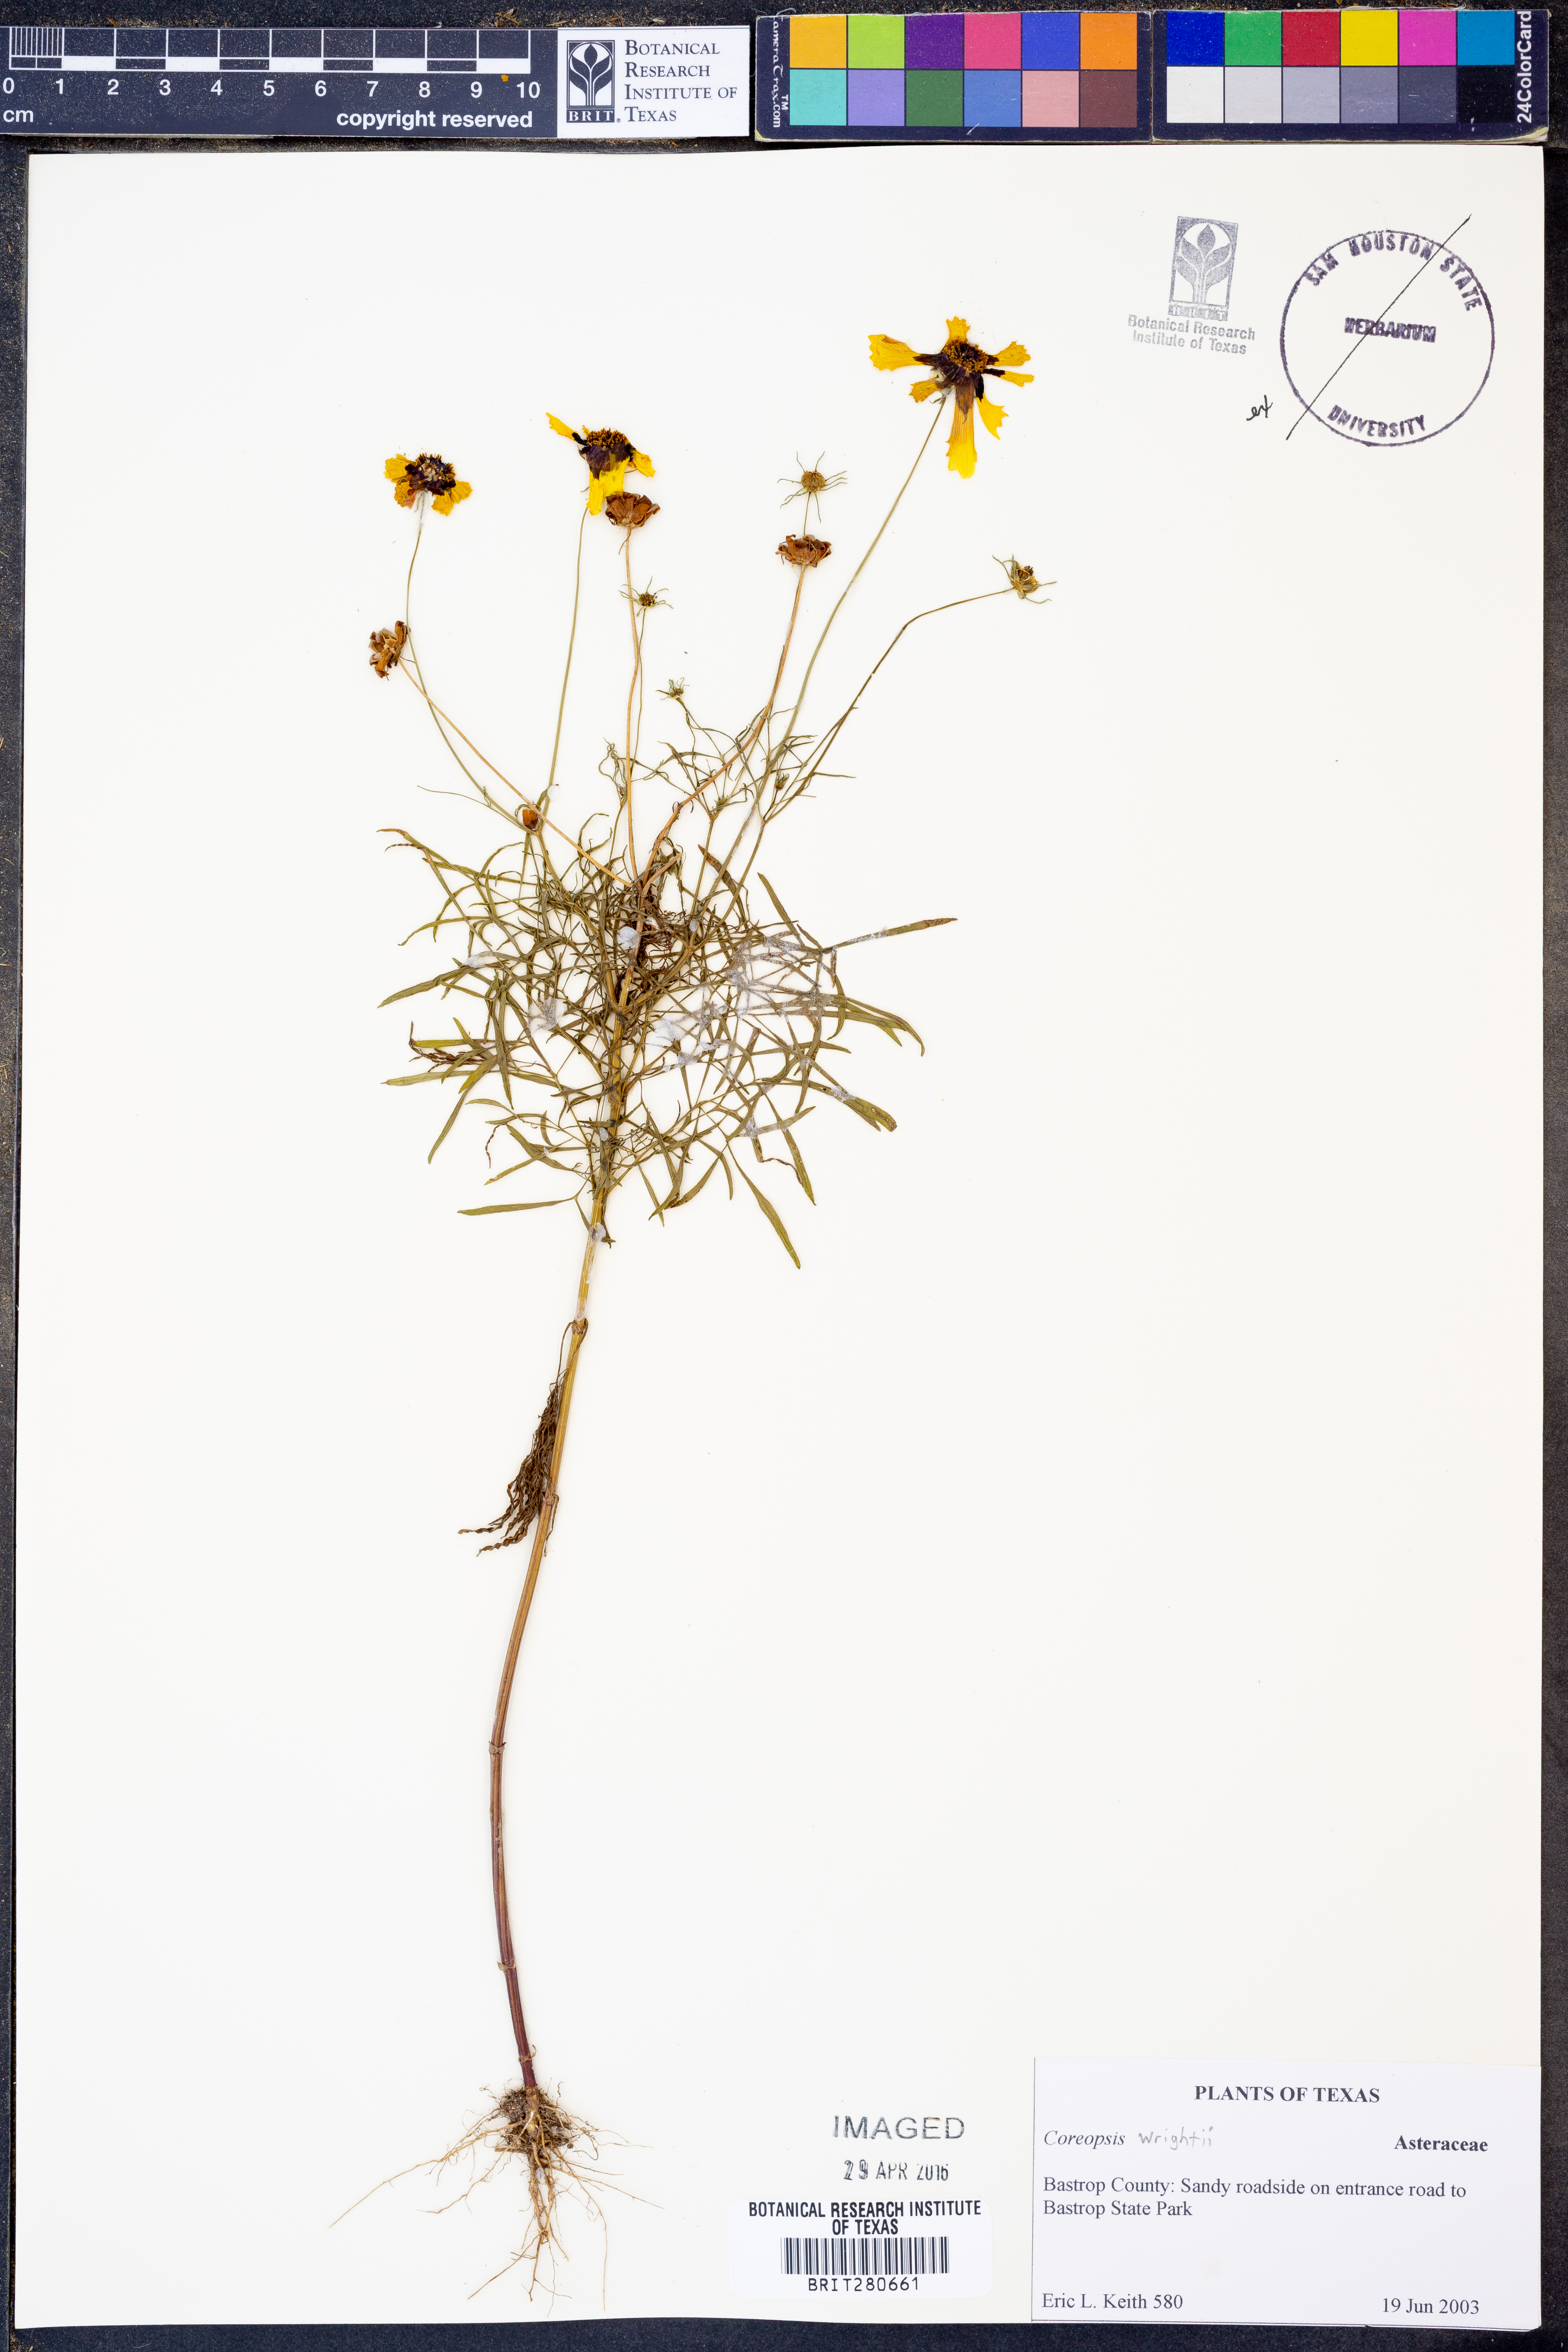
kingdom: Plantae
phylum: Tracheophyta
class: Magnoliopsida
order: Asterales
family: Asteraceae
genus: Coreopsis
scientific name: Coreopsis basalis
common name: Golden-mane coreopsis
